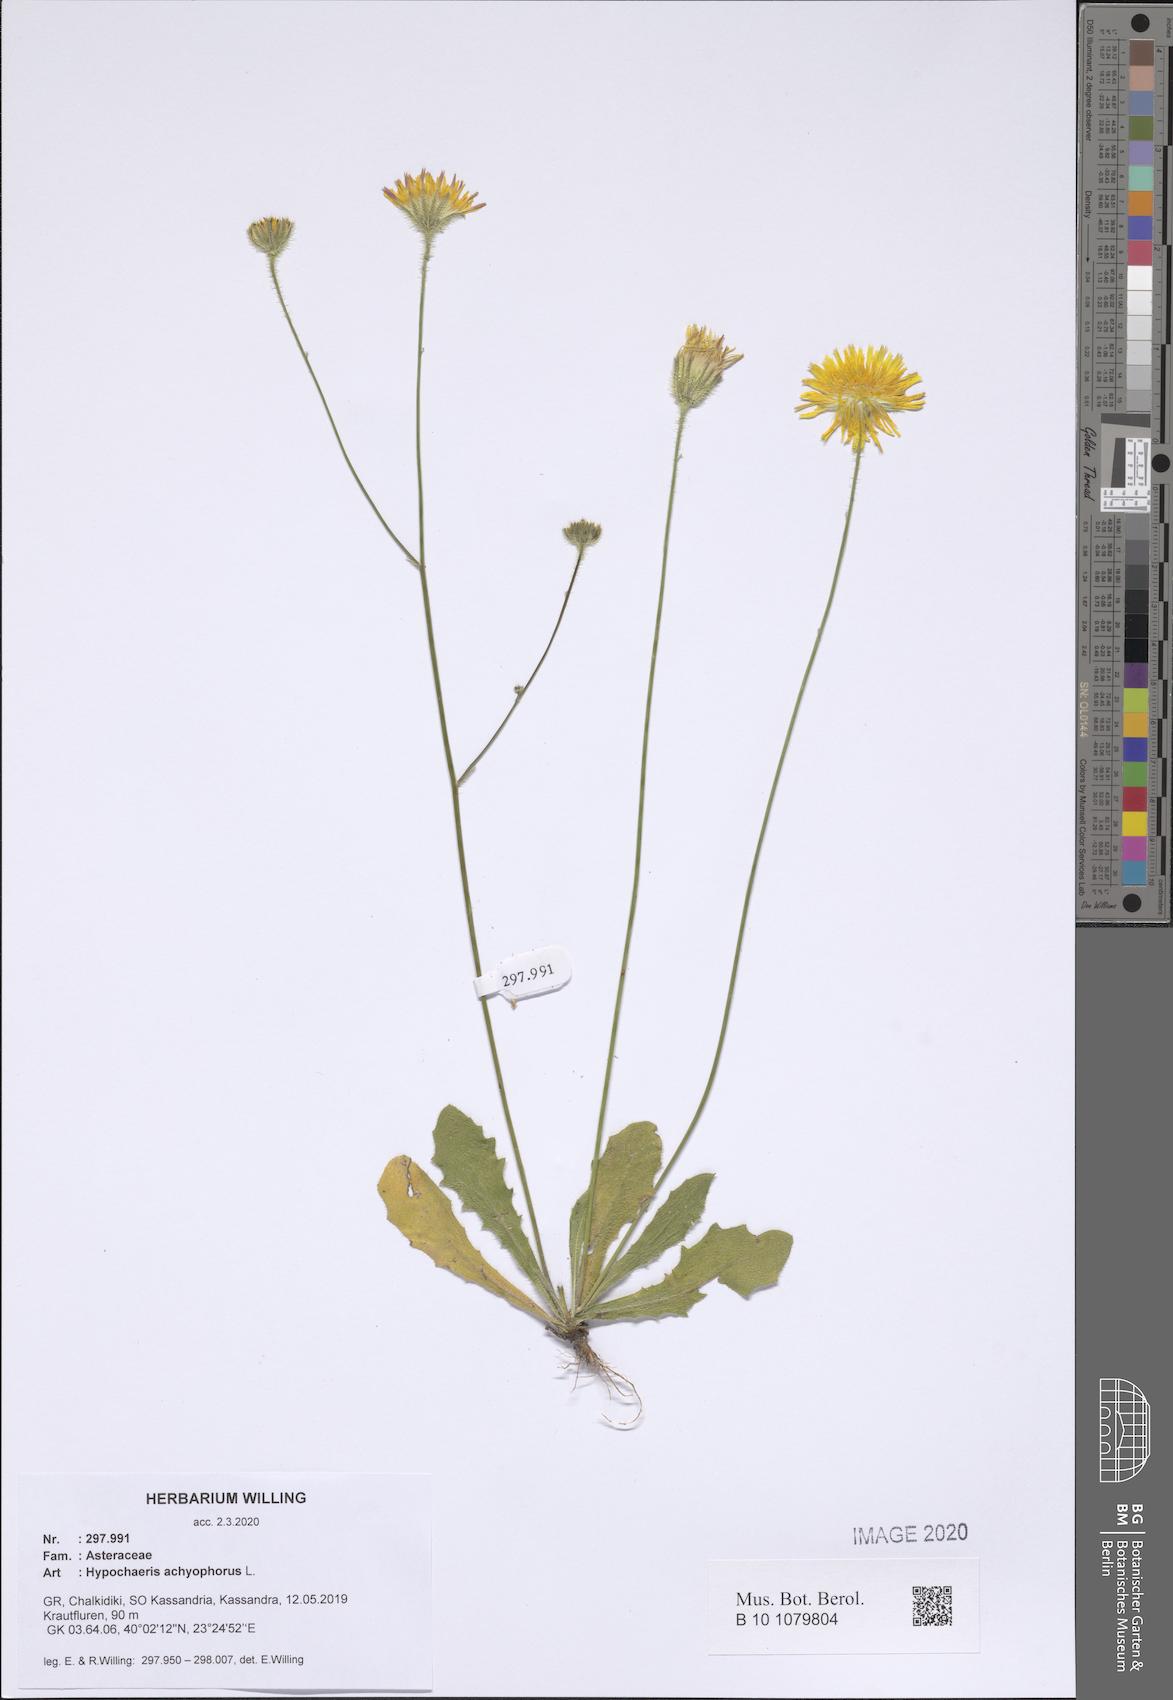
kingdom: Plantae
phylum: Tracheophyta
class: Magnoliopsida
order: Asterales
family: Asteraceae
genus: Achyrophorus
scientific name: Achyrophorus valdesii
